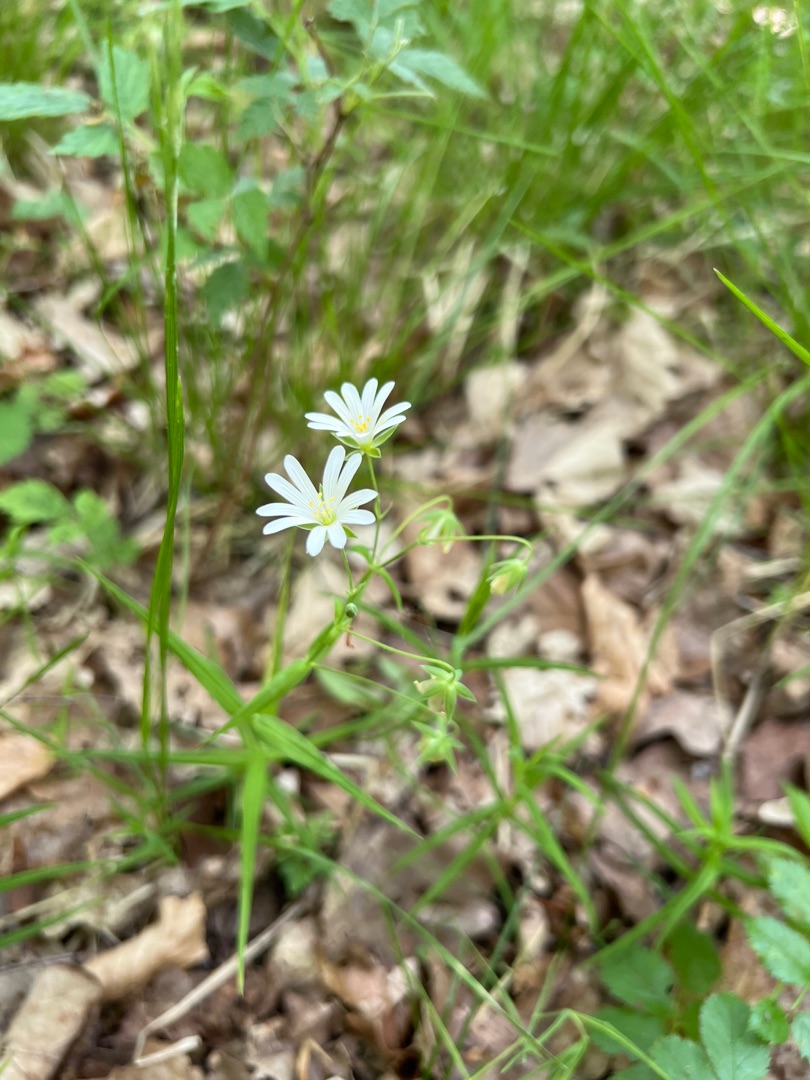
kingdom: Plantae
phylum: Tracheophyta
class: Magnoliopsida
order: Caryophyllales
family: Caryophyllaceae
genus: Rabelera
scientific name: Rabelera holostea
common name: Stor fladstjerne
